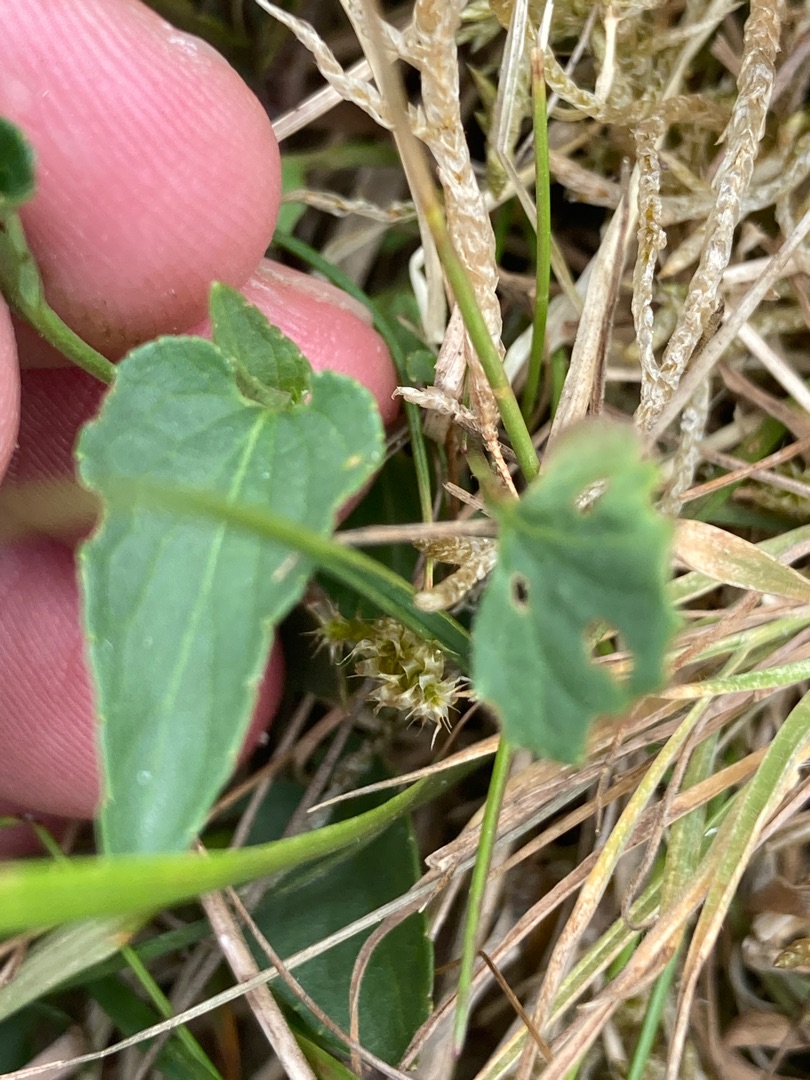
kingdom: Plantae
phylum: Tracheophyta
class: Magnoliopsida
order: Malpighiales
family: Violaceae
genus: Viola
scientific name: Viola canina
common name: Hunde-viol
